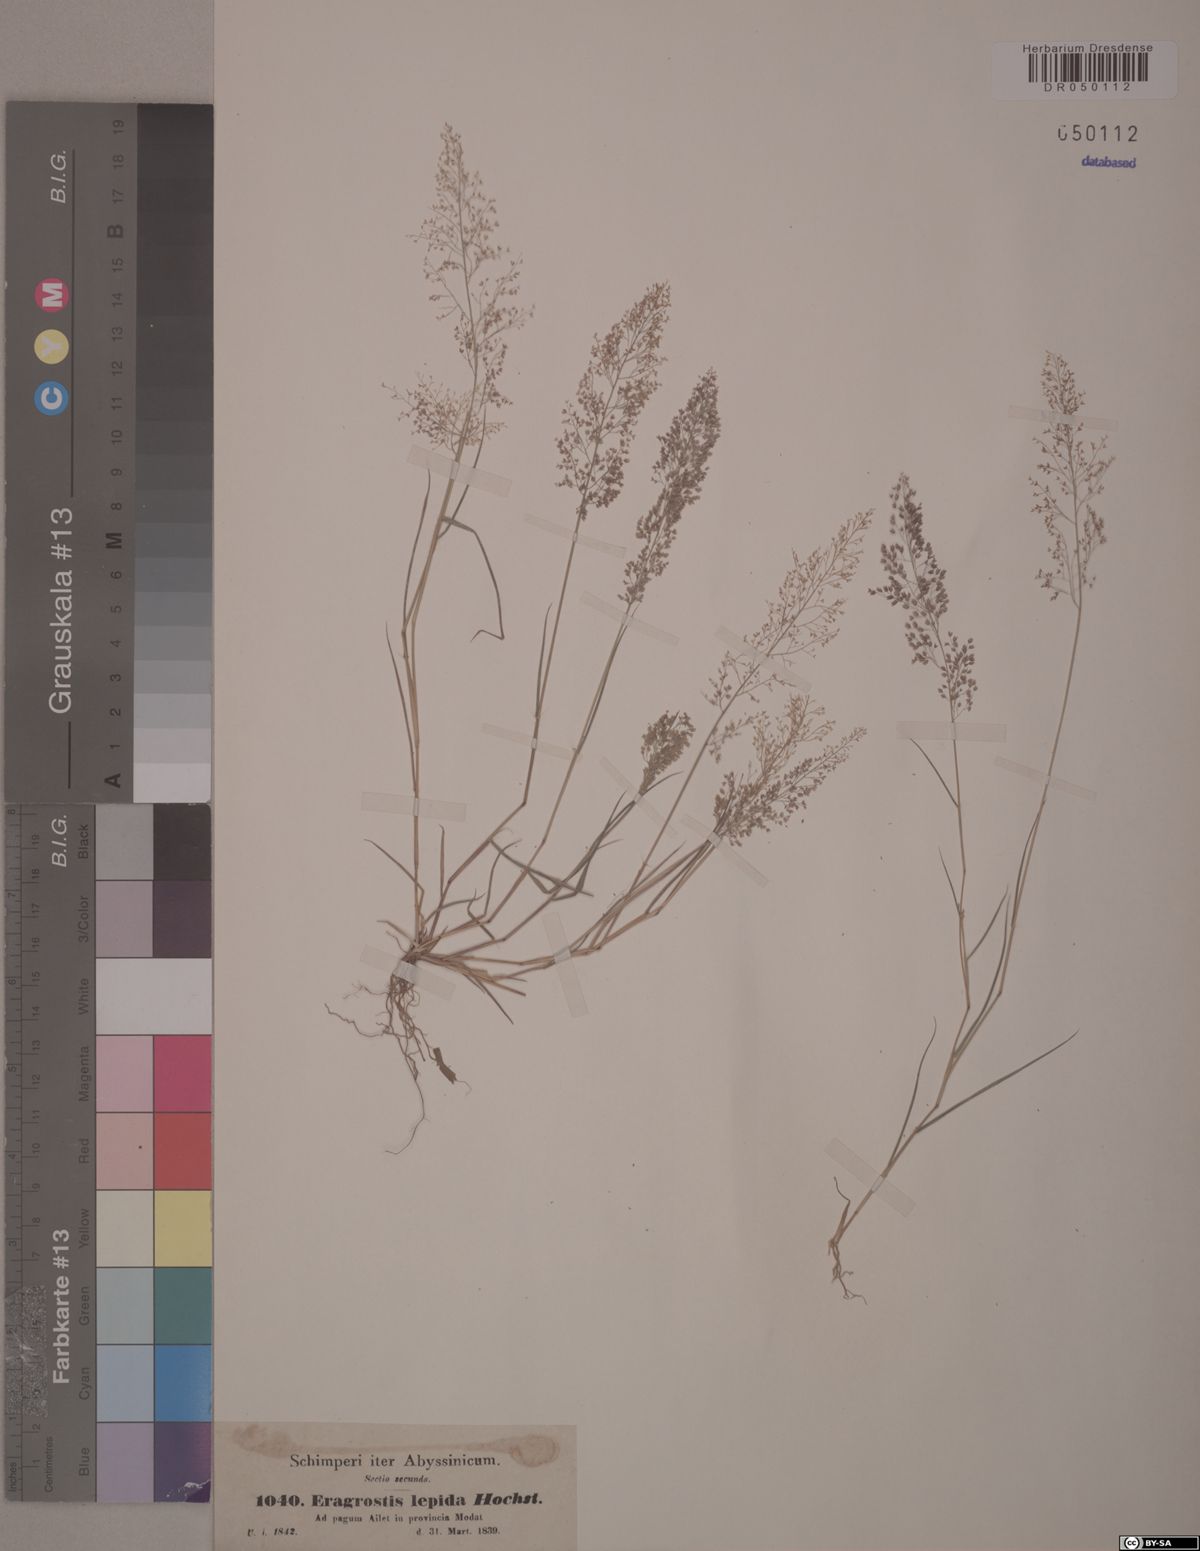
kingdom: Plantae
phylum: Tracheophyta
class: Liliopsida
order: Poales
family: Poaceae
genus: Eragrostis
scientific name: Eragrostis lepida
